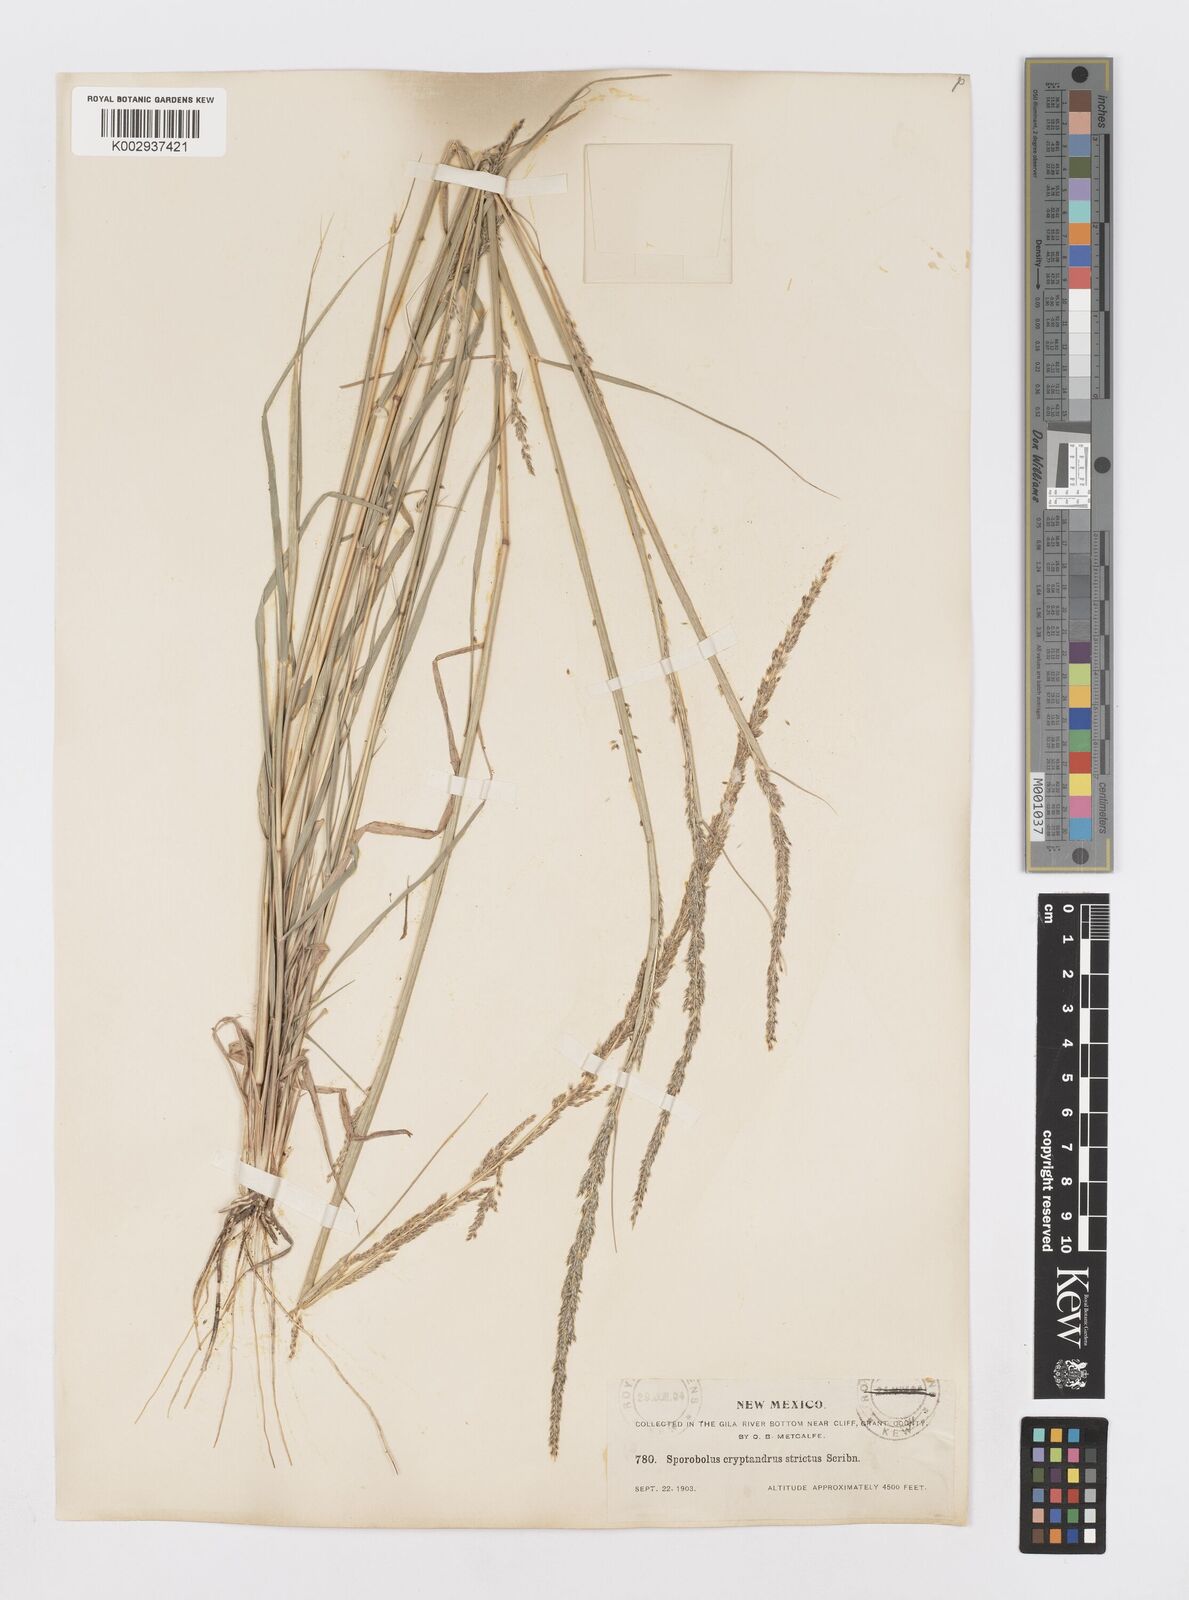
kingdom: Plantae
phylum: Tracheophyta
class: Liliopsida
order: Poales
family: Poaceae
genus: Sporobolus
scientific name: Sporobolus contractus
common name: Spike dropseed
